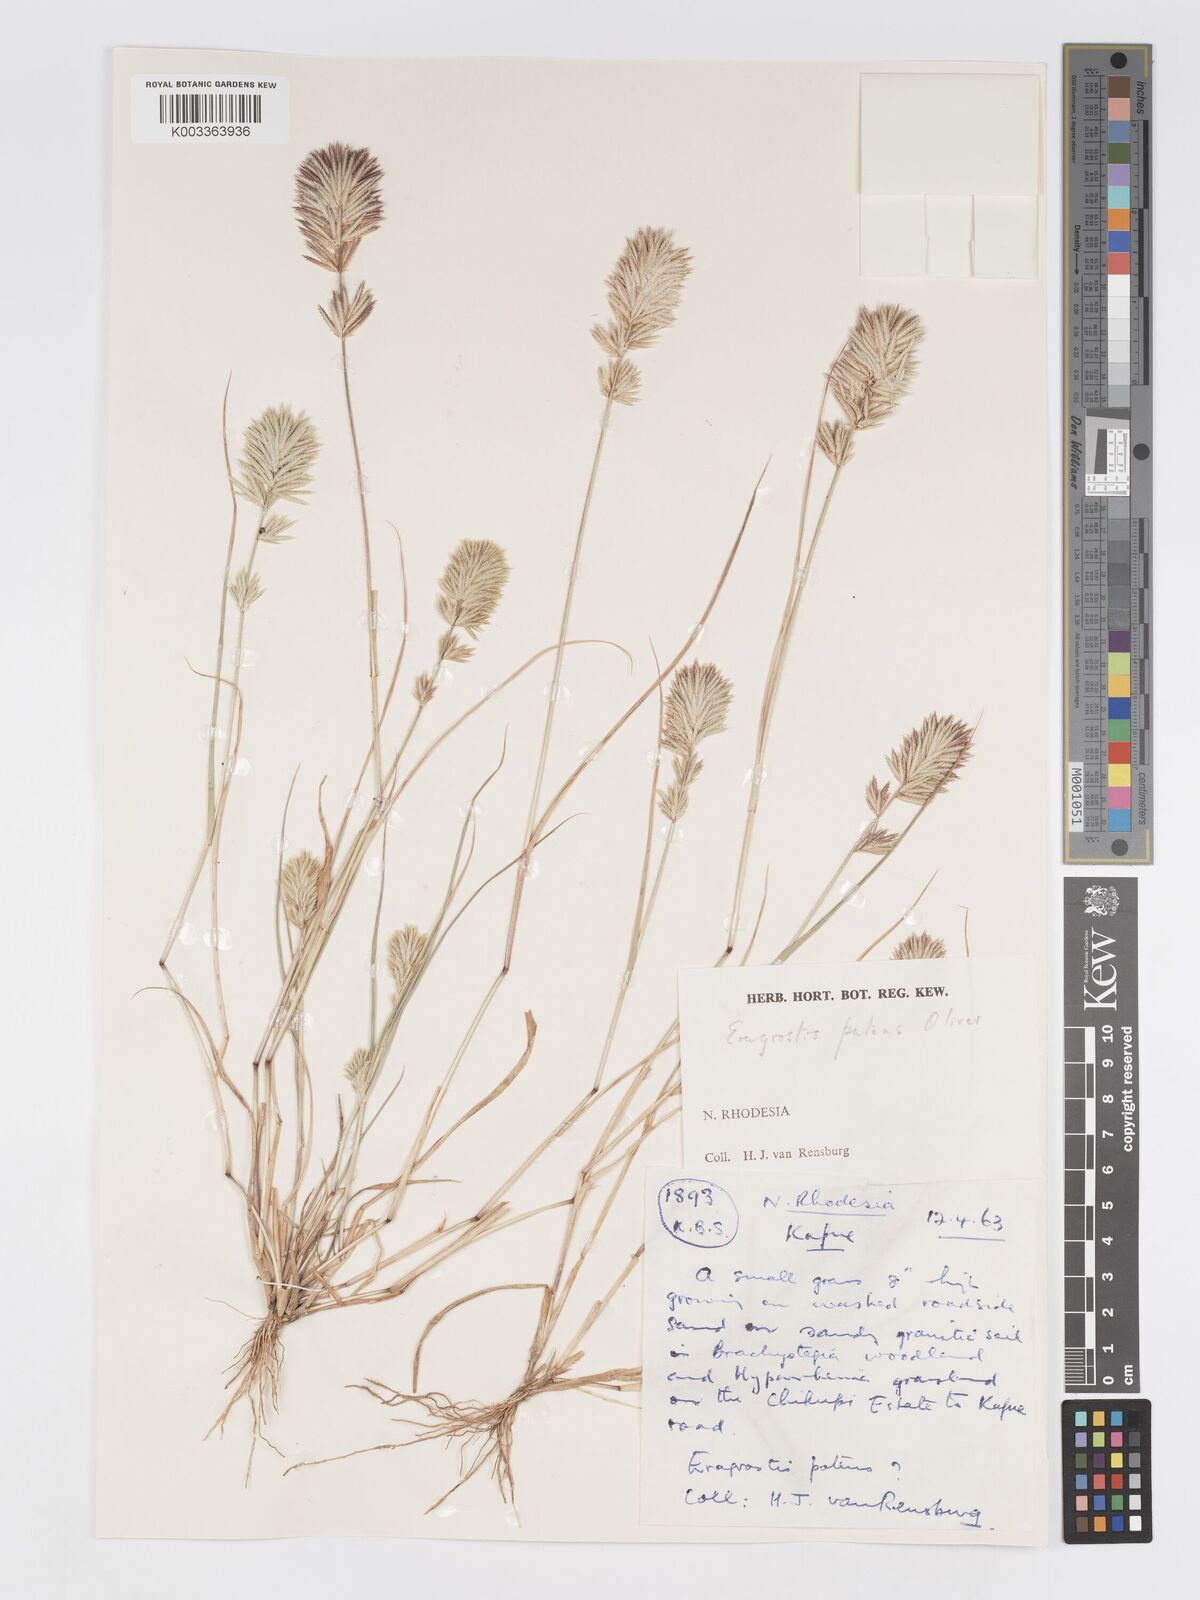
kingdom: Plantae
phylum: Tracheophyta
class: Liliopsida
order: Poales
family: Poaceae
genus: Eragrostis
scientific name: Eragrostis patens
